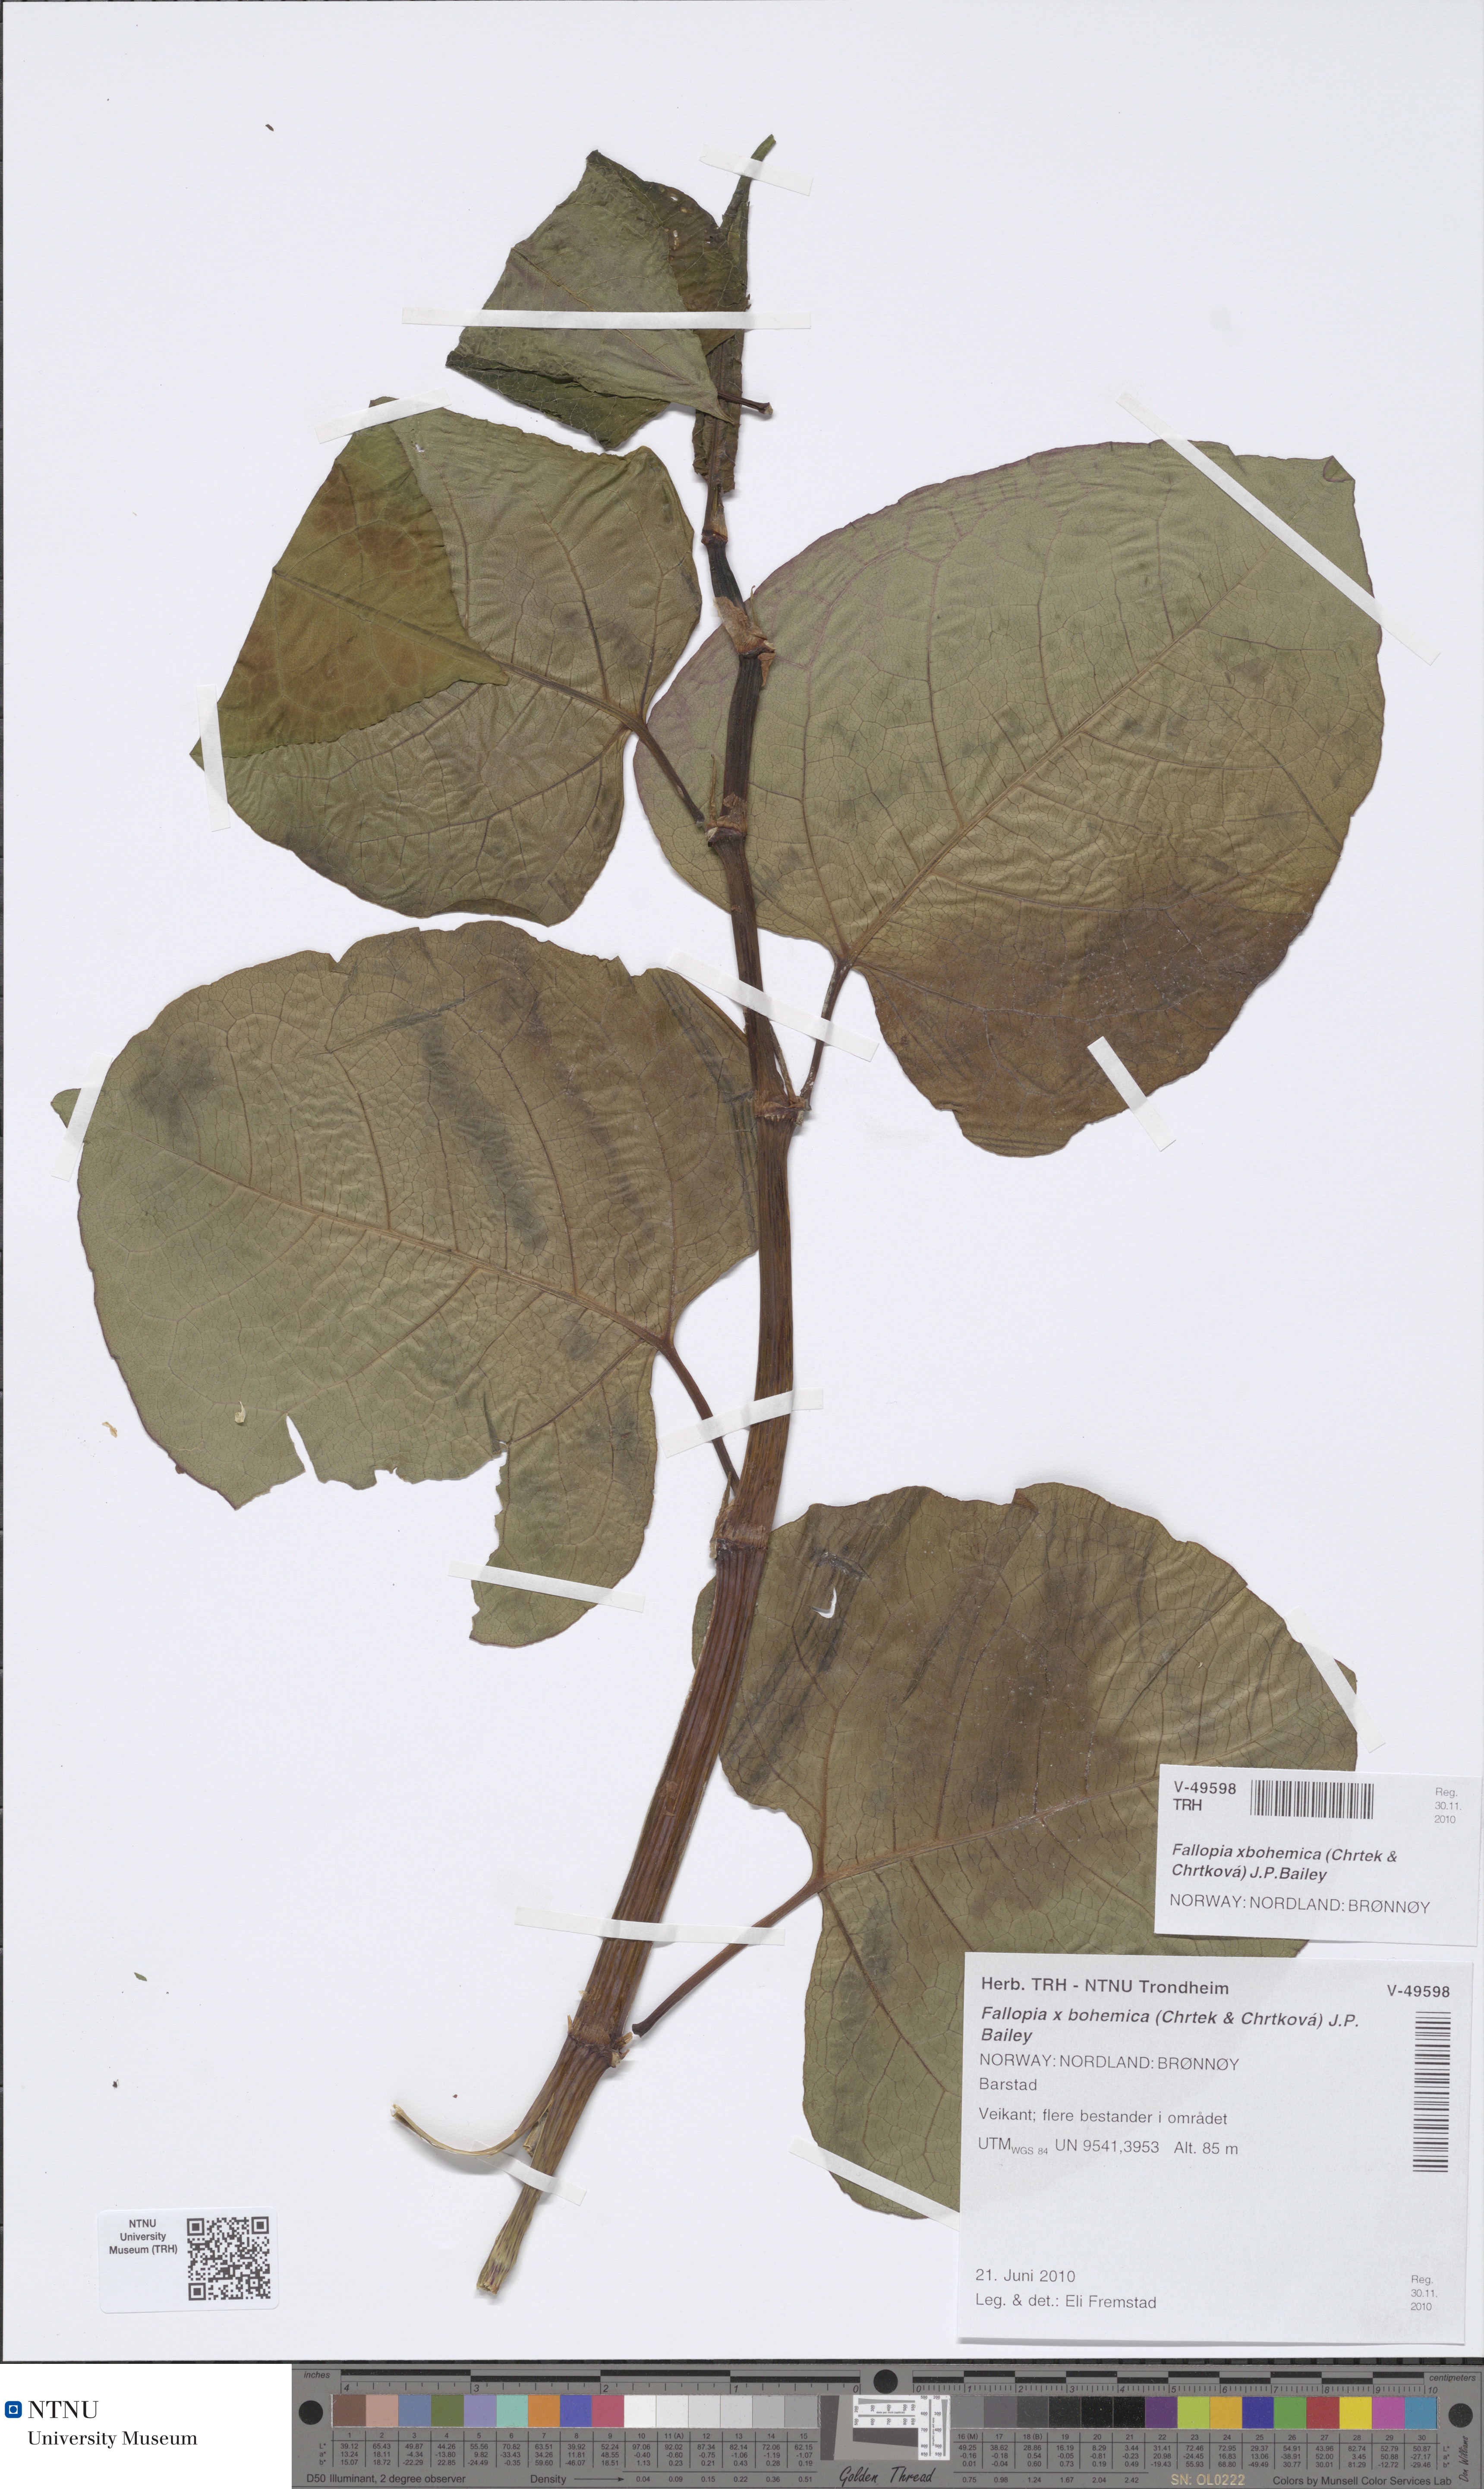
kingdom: Plantae
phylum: Tracheophyta
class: Magnoliopsida
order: Caryophyllales
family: Polygonaceae
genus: Reynoutria
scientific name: Reynoutria bohemica
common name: Bohemian knotweed
